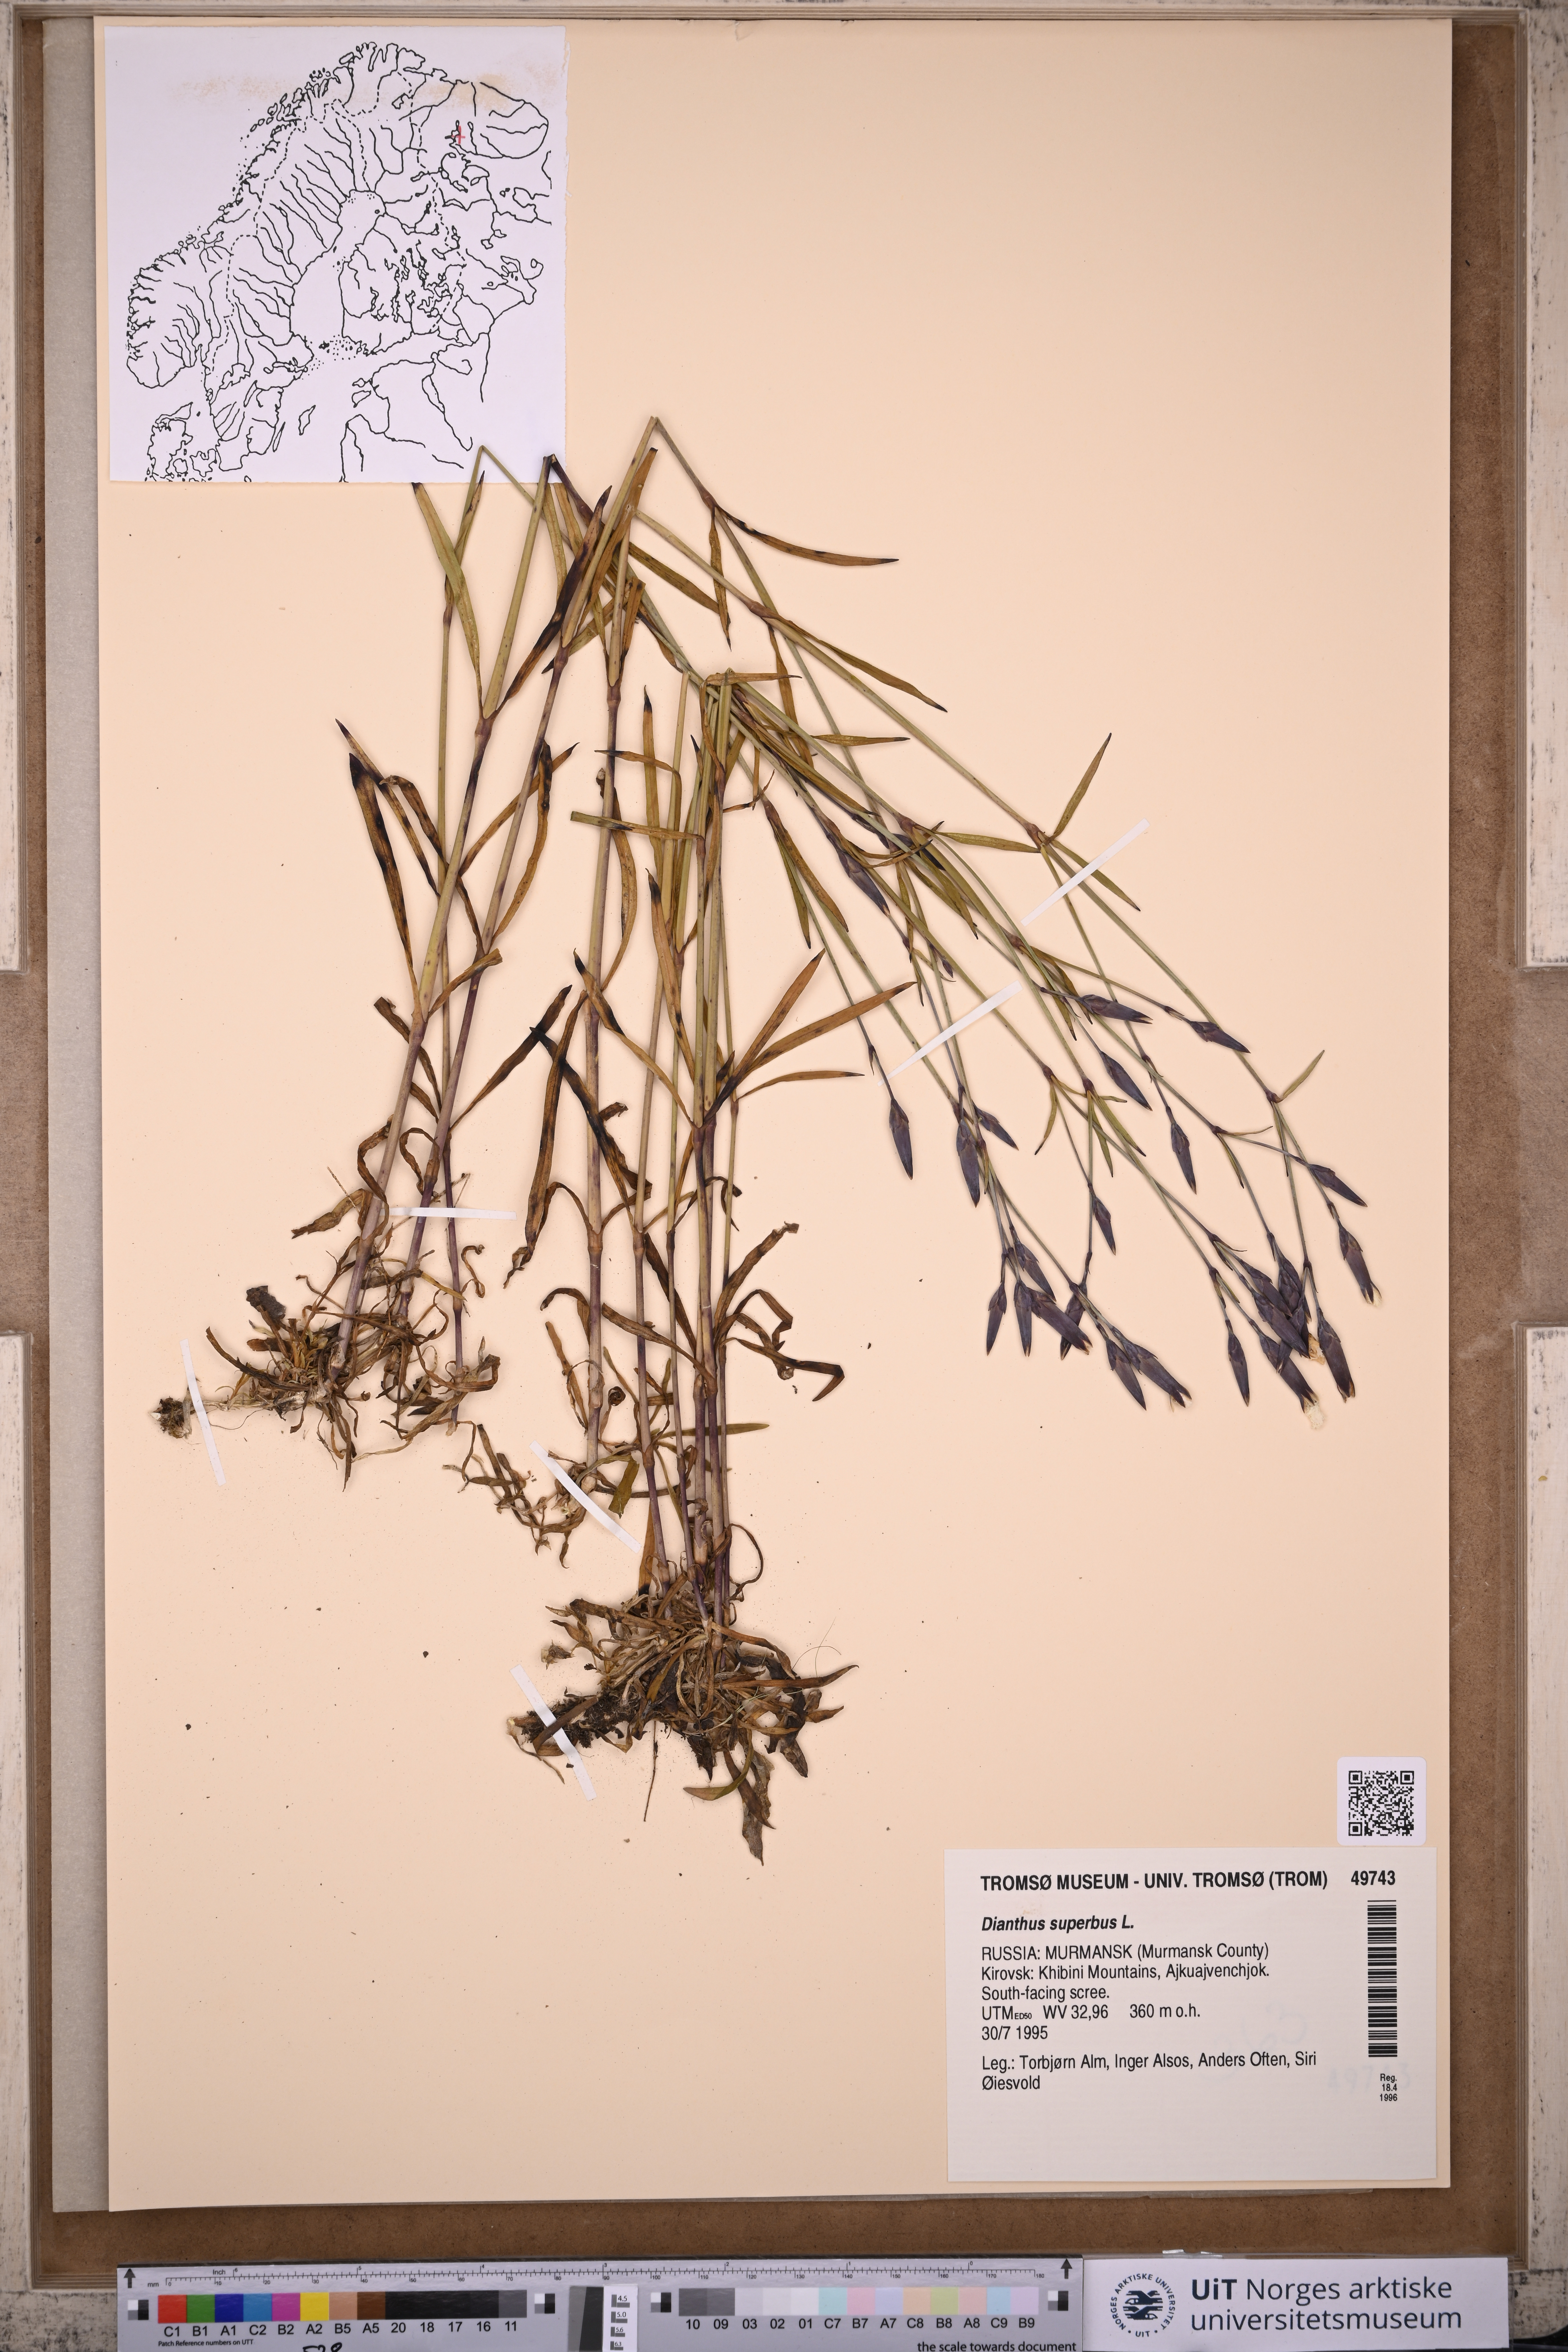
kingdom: Plantae
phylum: Tracheophyta
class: Magnoliopsida
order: Caryophyllales
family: Caryophyllaceae
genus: Dianthus
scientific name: Dianthus superbus
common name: Fringed pink
